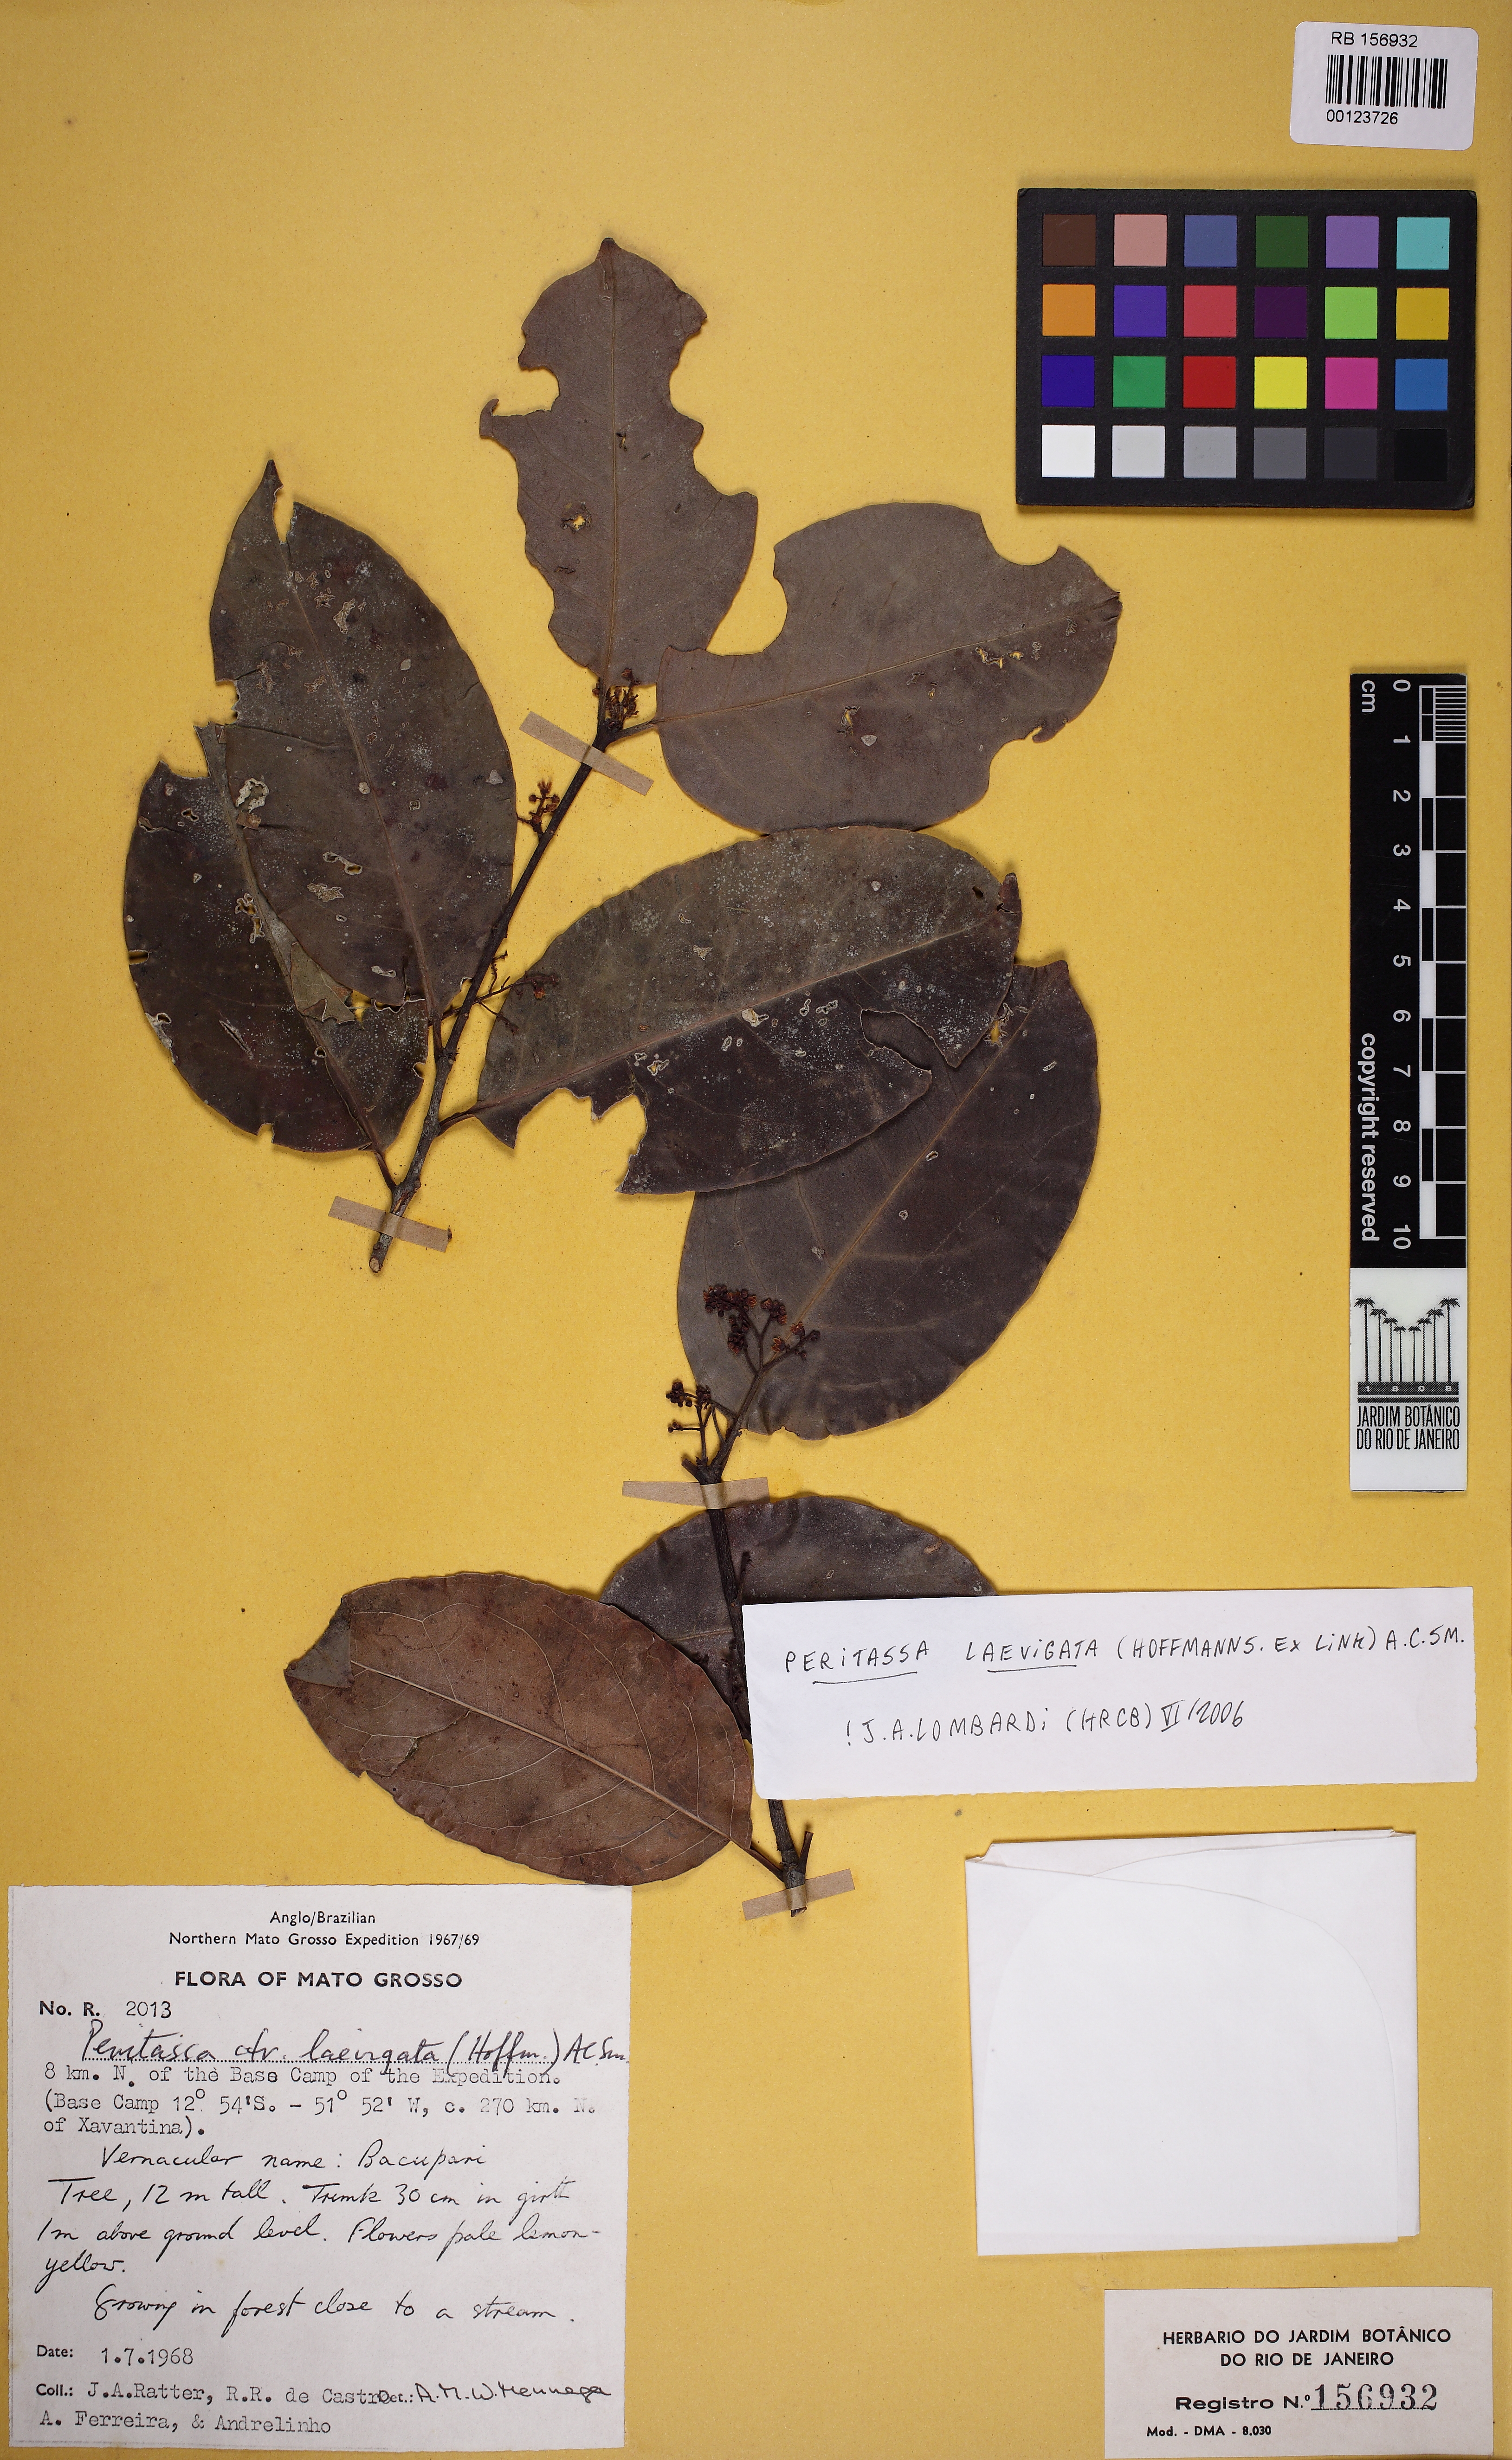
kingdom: Plantae
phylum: Tracheophyta
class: Magnoliopsida
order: Celastrales
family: Celastraceae
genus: Peritassa
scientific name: Peritassa laevigata
